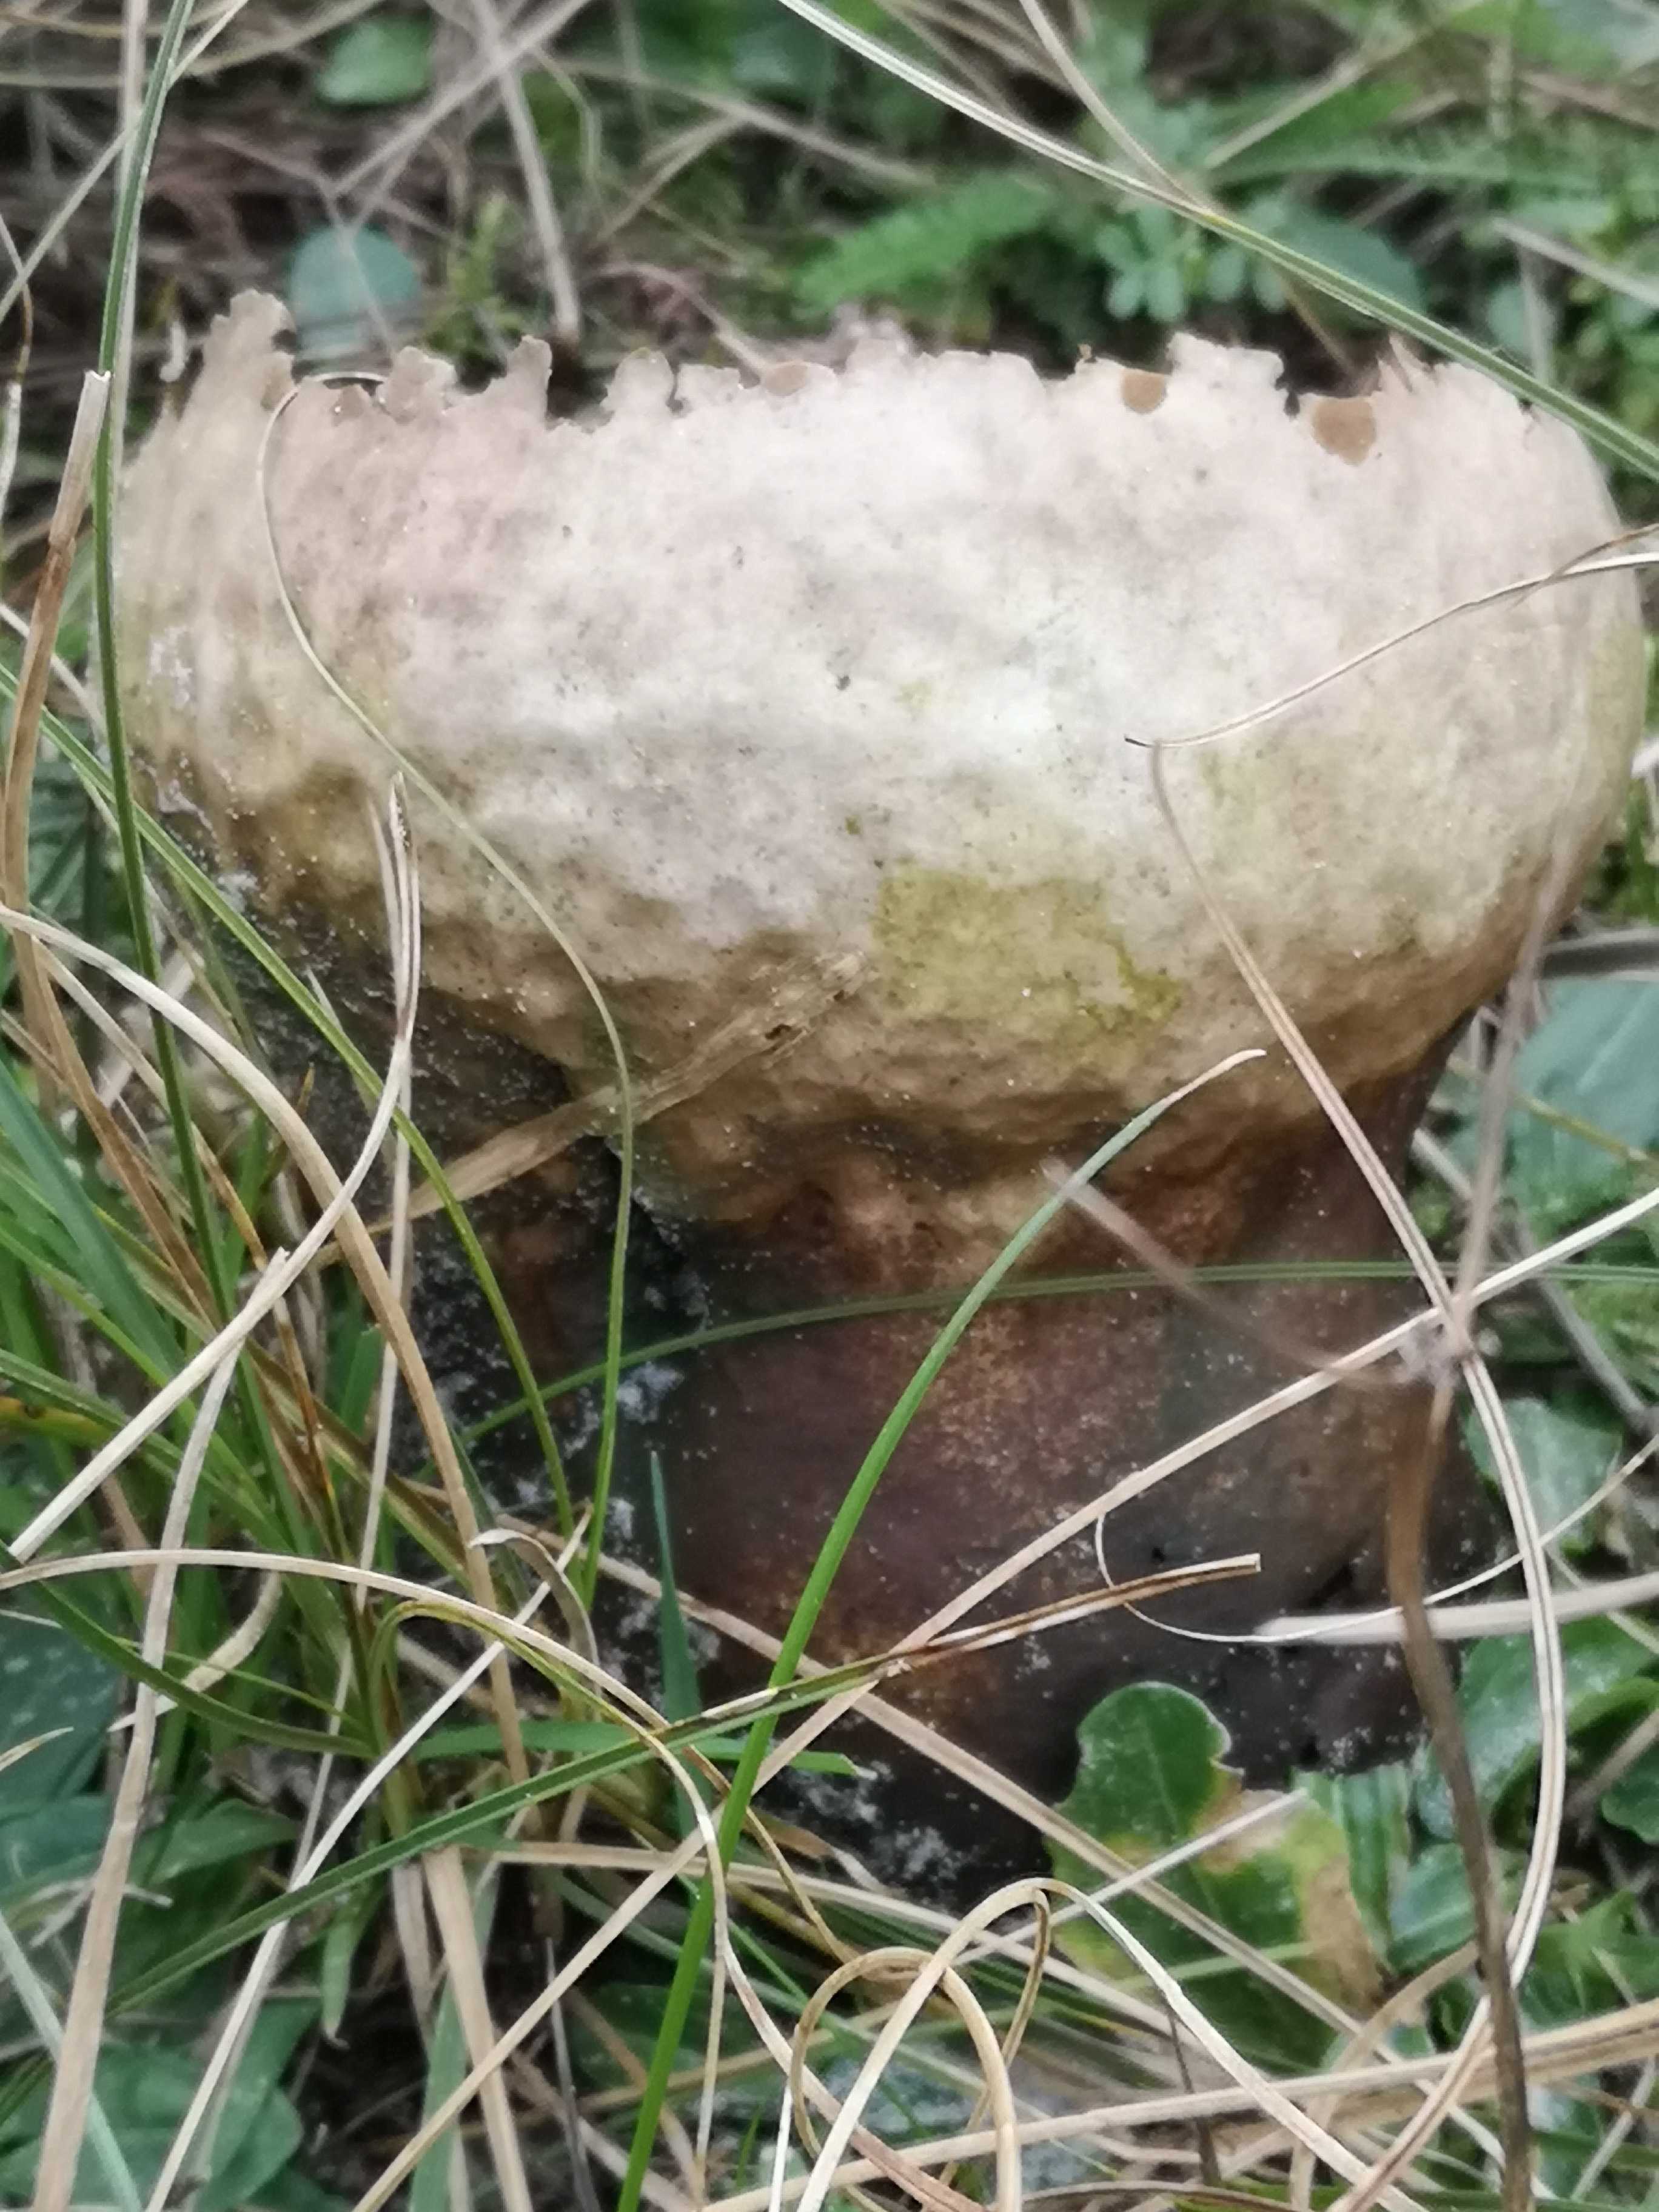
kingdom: Fungi
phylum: Basidiomycota
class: Agaricomycetes
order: Agaricales
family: Lycoperdaceae
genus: Bovistella
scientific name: Bovistella utriformis
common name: skællet støvbold
